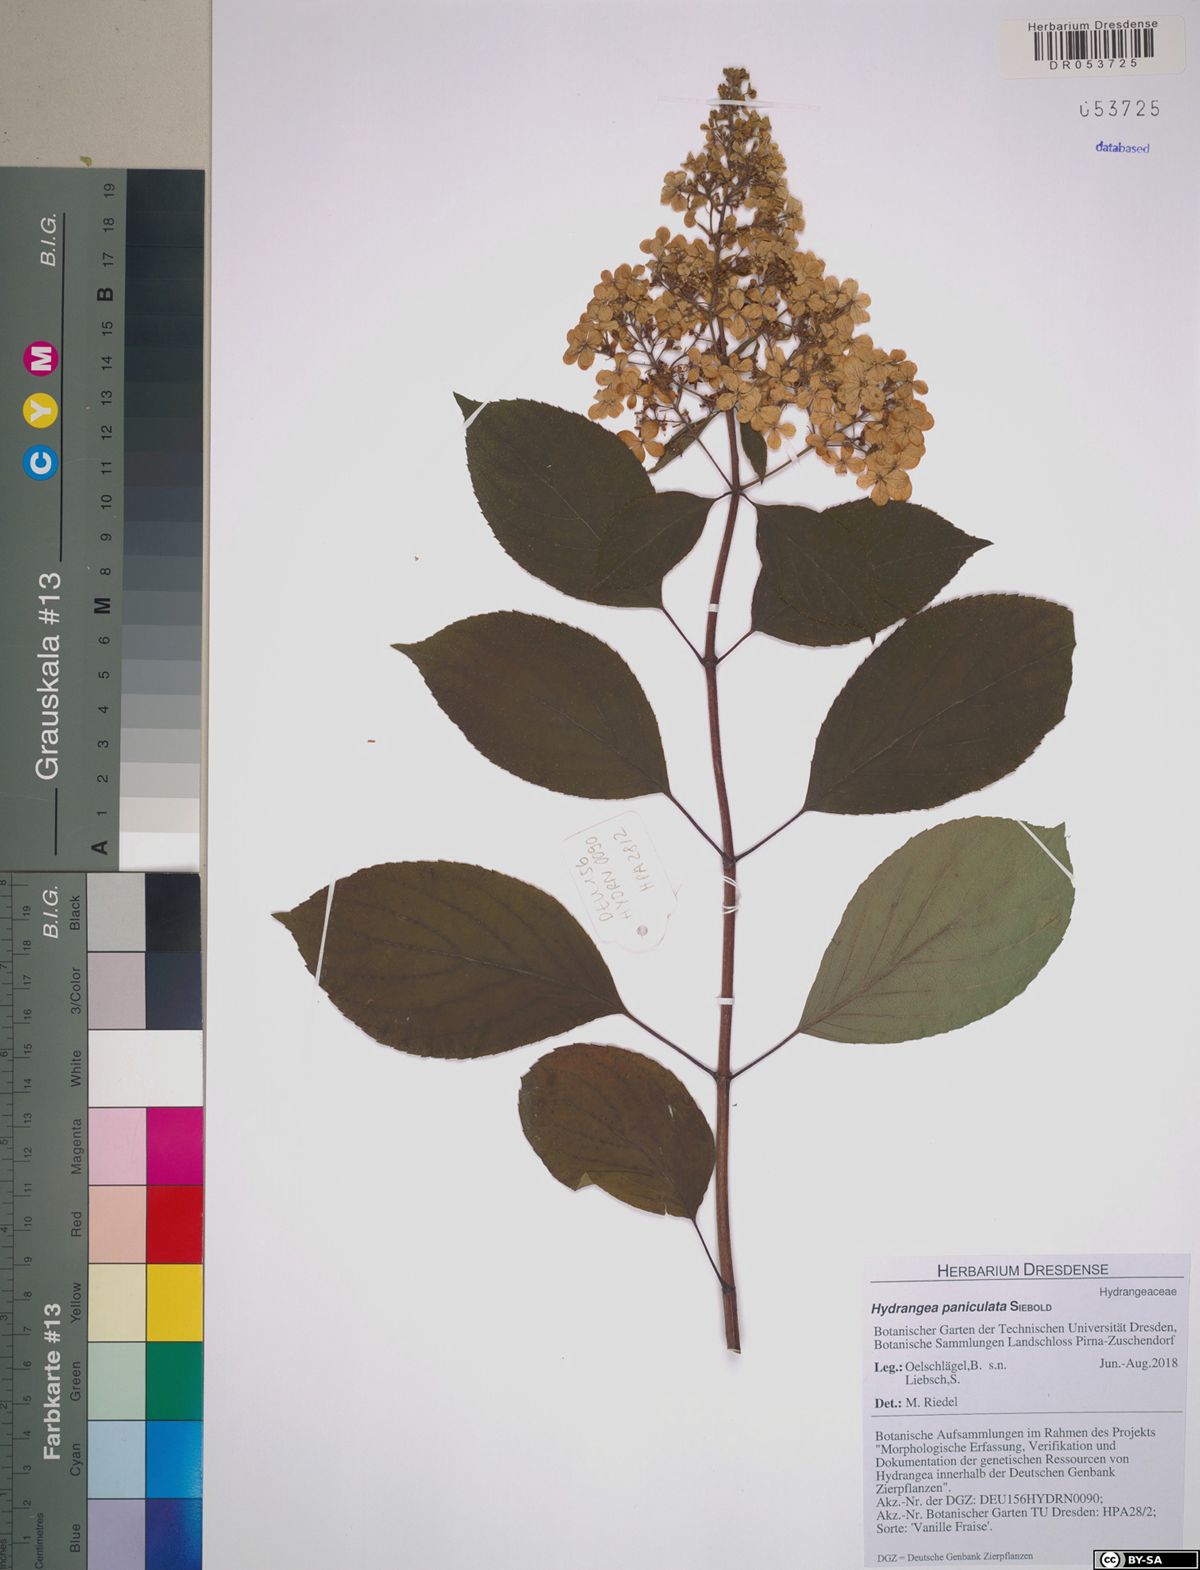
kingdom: Plantae
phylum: Tracheophyta
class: Magnoliopsida
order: Cornales
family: Hydrangeaceae
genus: Hydrangea
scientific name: Hydrangea paniculata
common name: Panicled hydrangea
